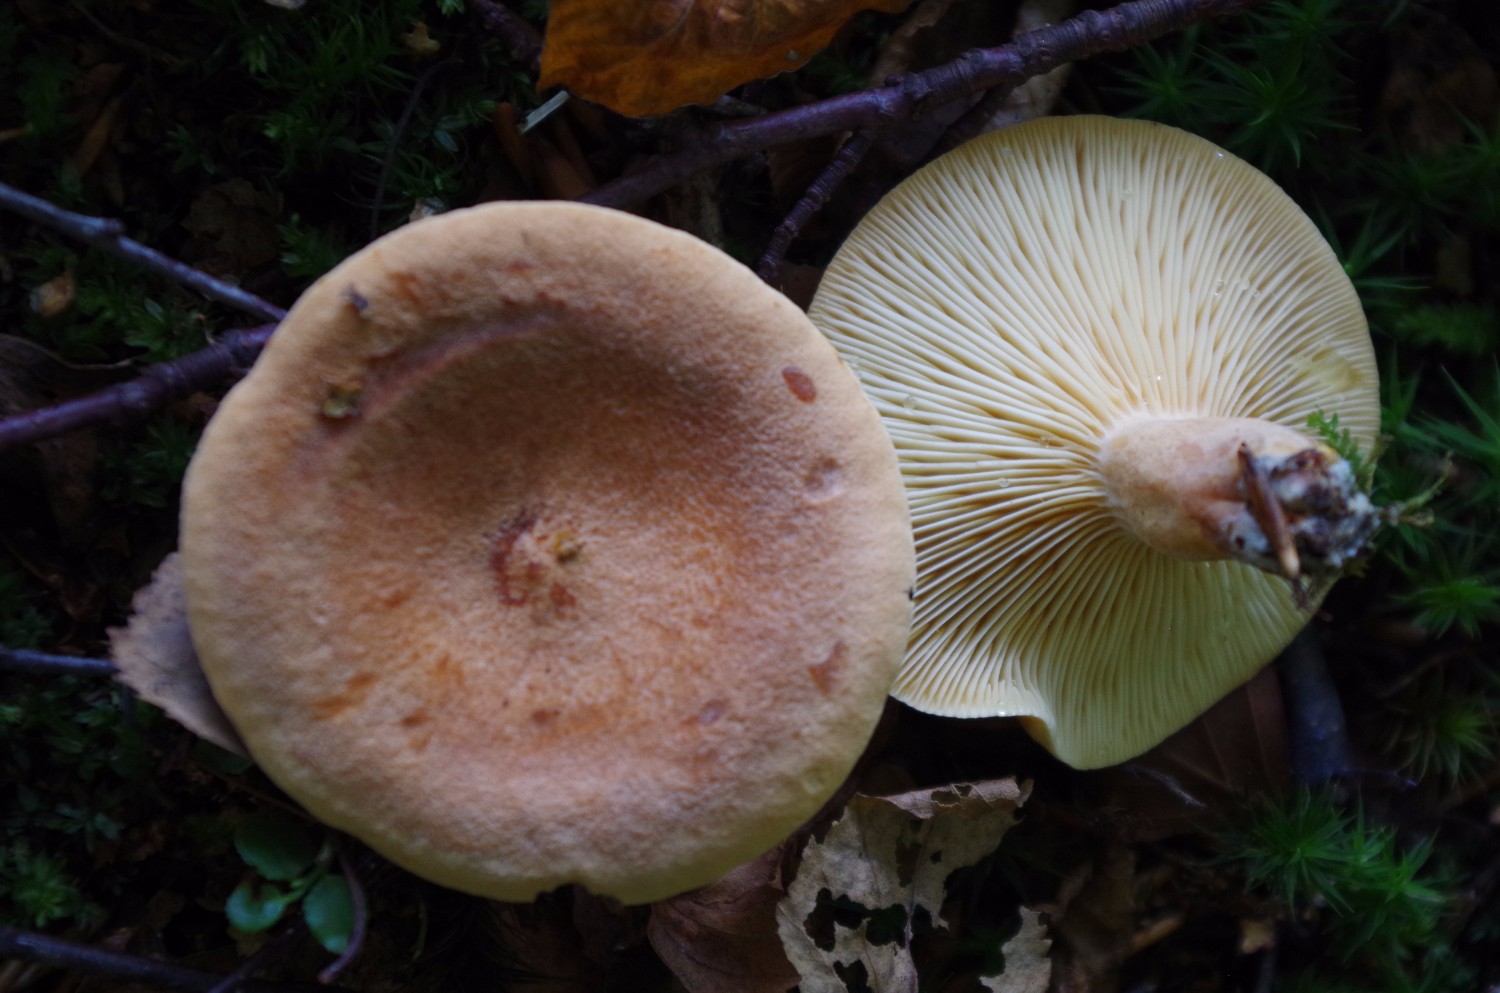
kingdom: Fungi
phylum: Basidiomycota
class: Agaricomycetes
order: Russulales
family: Russulaceae
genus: Lactarius
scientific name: Lactarius helvus
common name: mose-mælkehat
